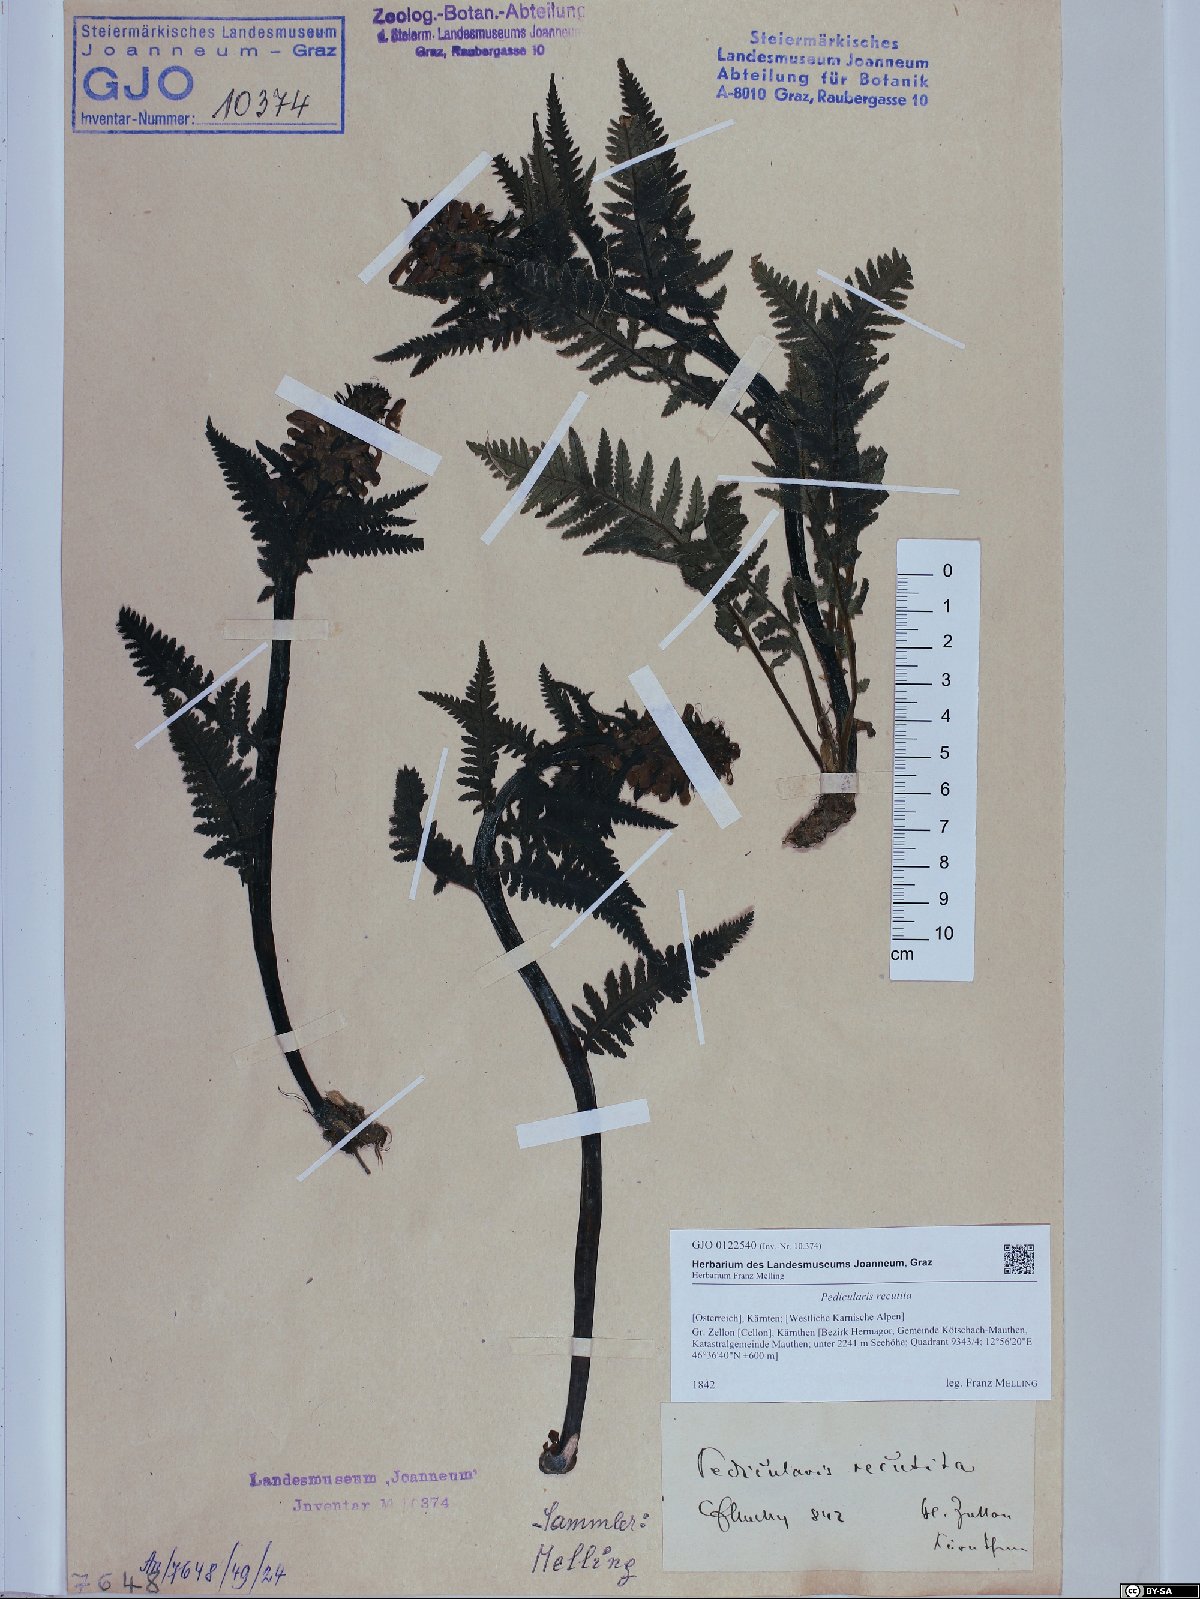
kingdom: Plantae
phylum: Tracheophyta
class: Magnoliopsida
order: Lamiales
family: Orobanchaceae
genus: Pedicularis
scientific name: Pedicularis recutita
